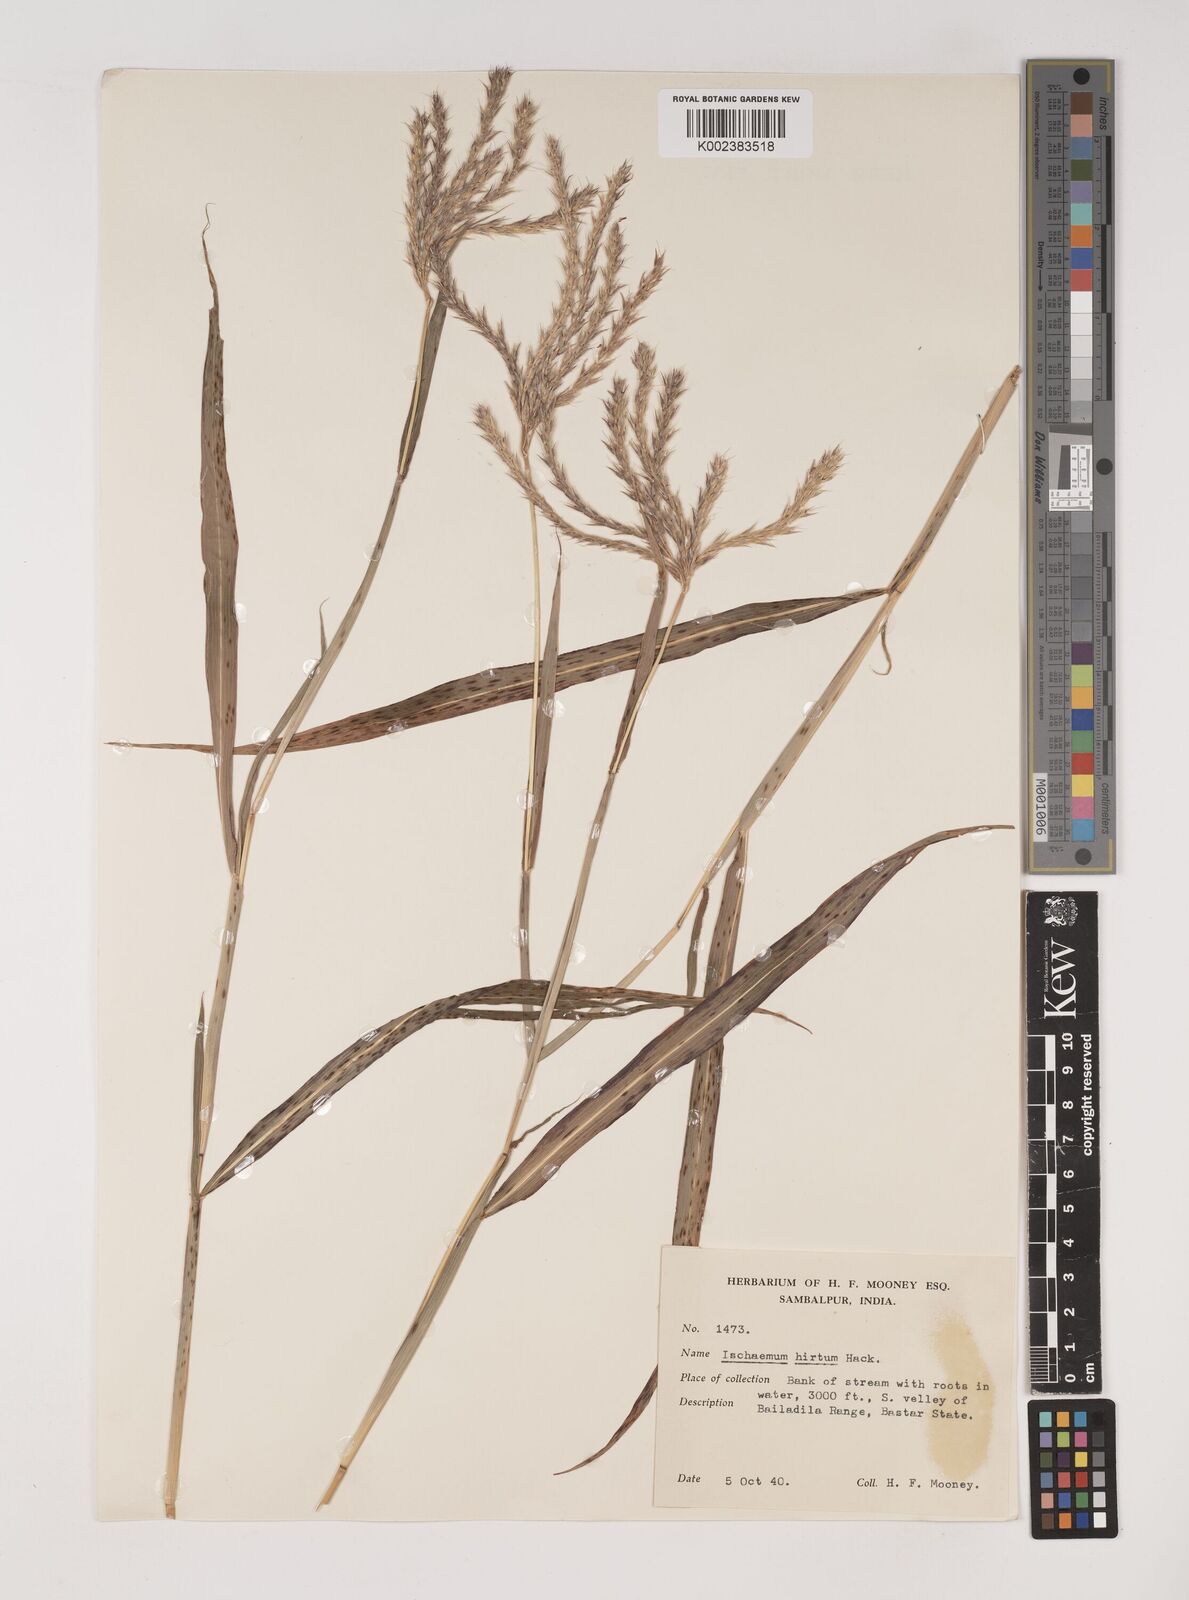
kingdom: Plantae
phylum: Tracheophyta
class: Liliopsida
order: Poales
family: Poaceae
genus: Ischaemum
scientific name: Ischaemum
